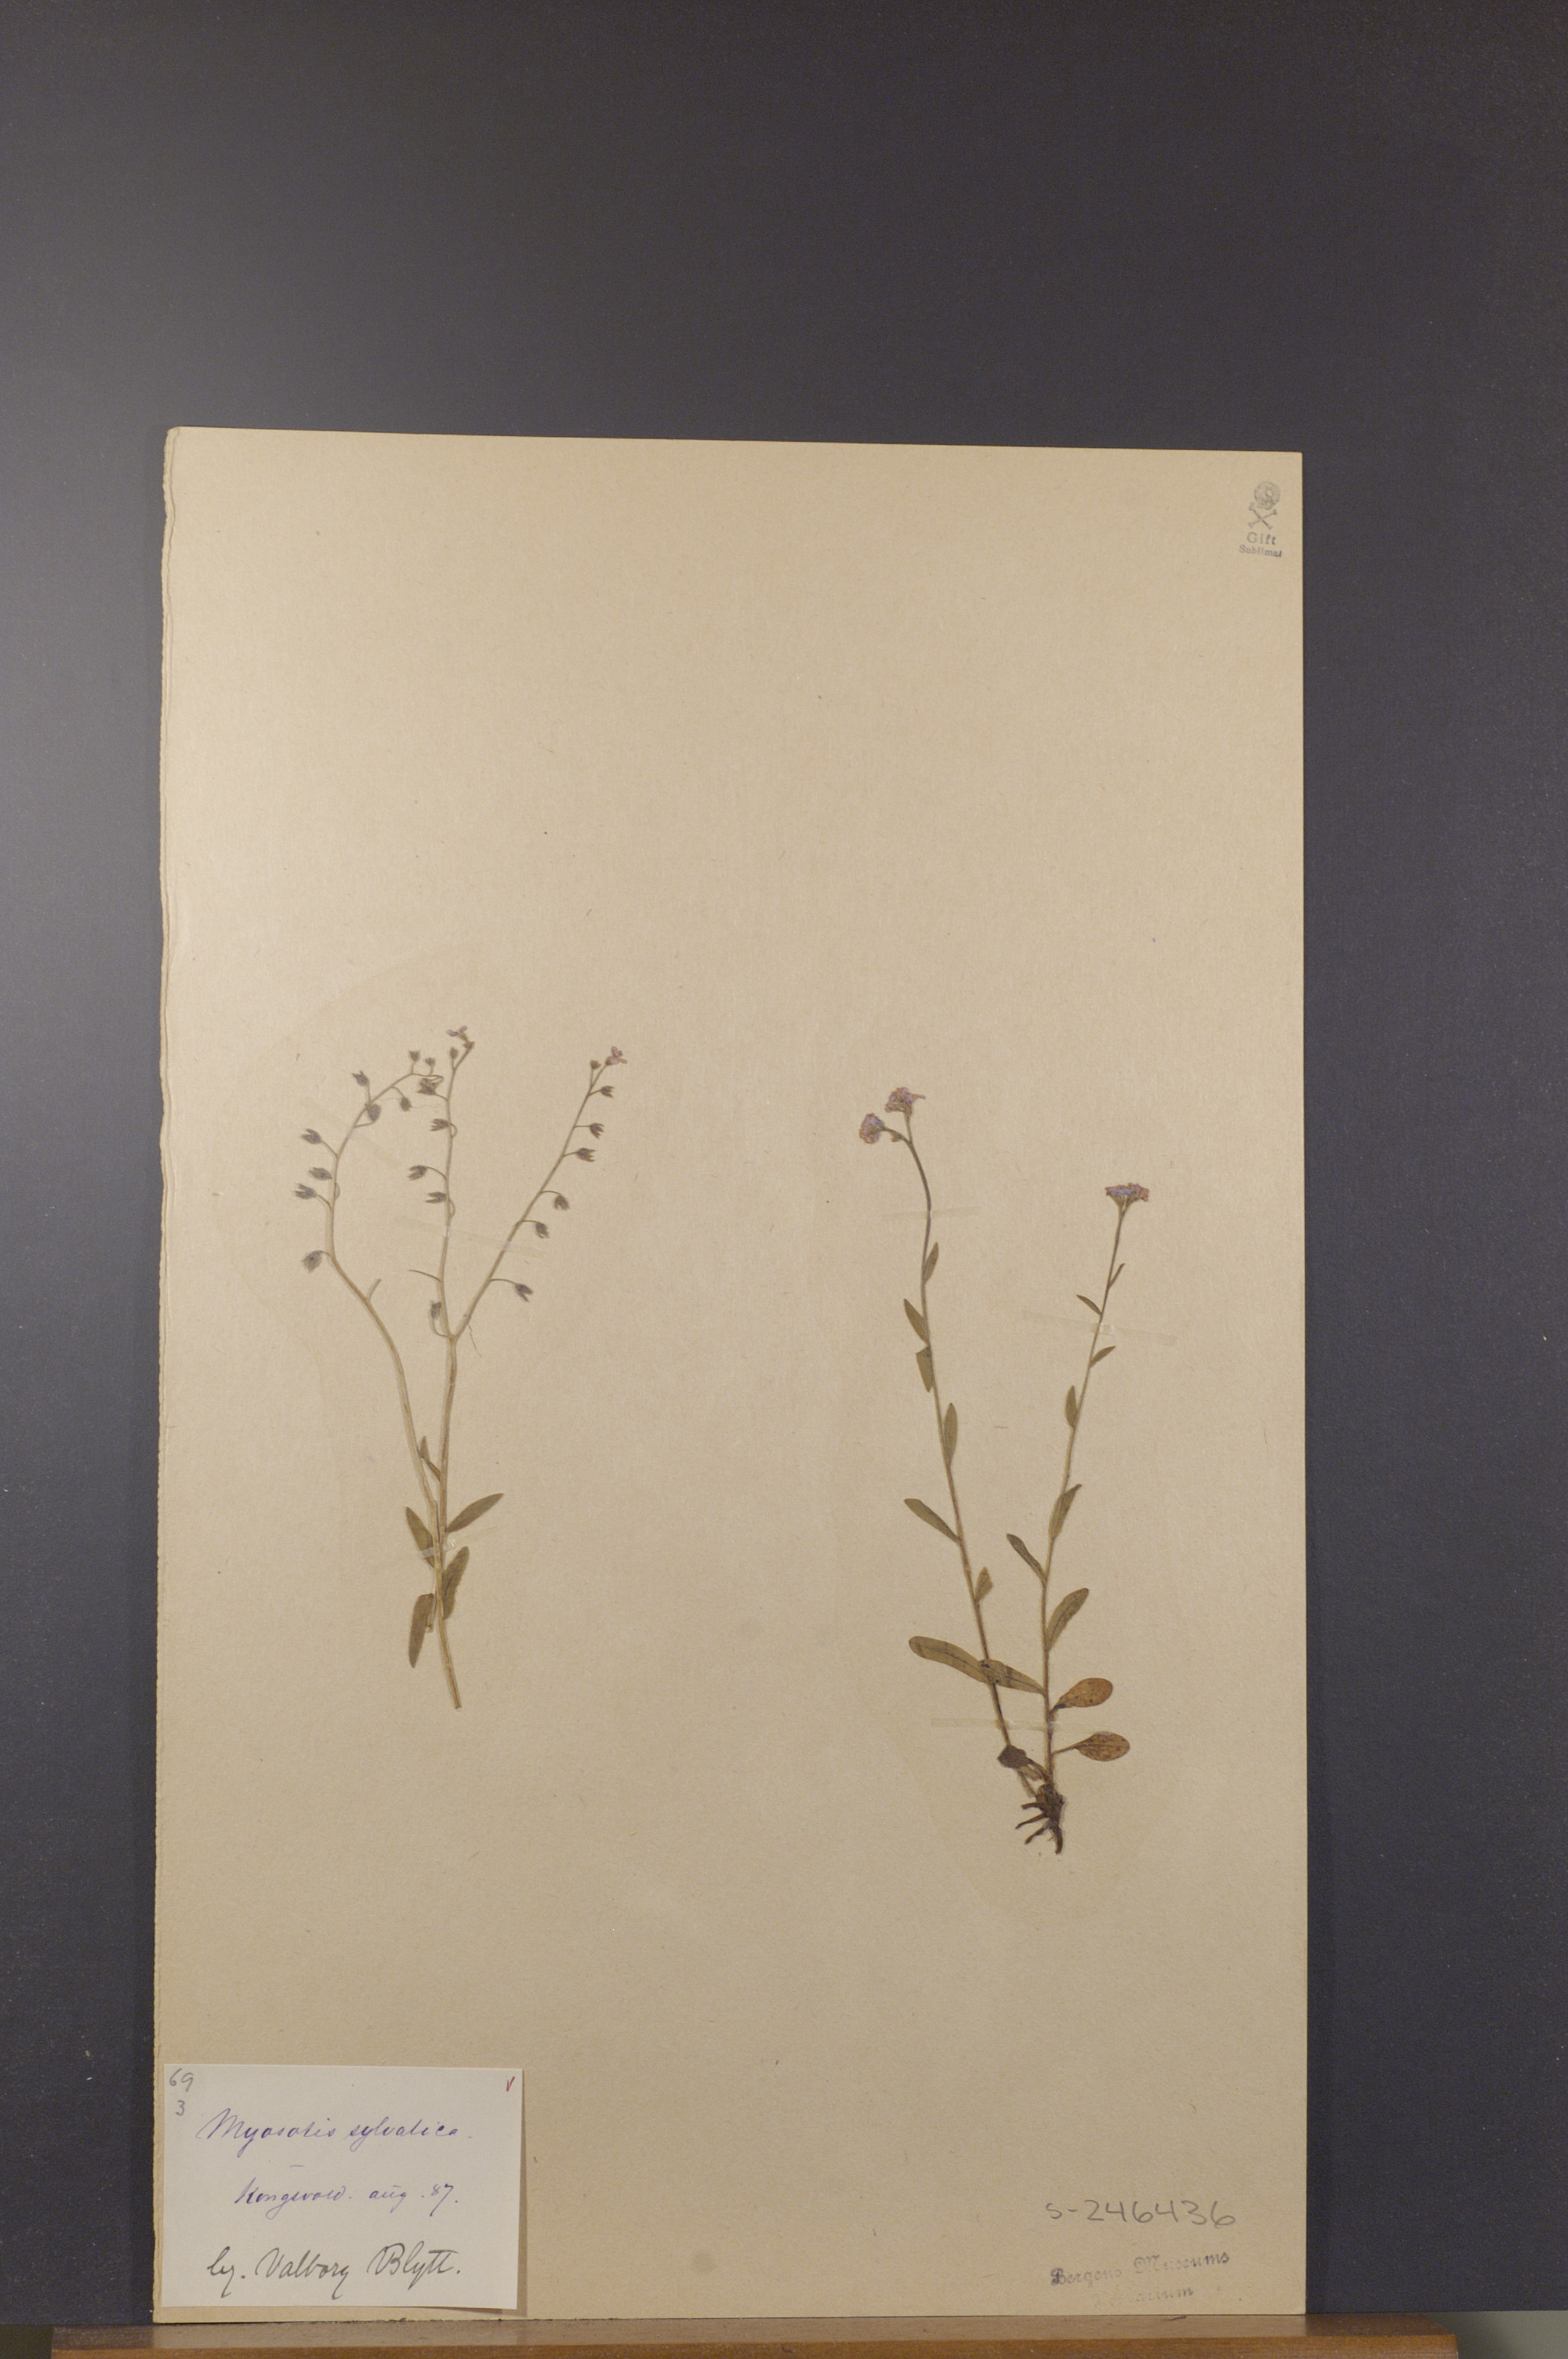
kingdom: Plantae
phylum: Tracheophyta
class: Magnoliopsida
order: Boraginales
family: Boraginaceae
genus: Myosotis
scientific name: Myosotis decumbens
